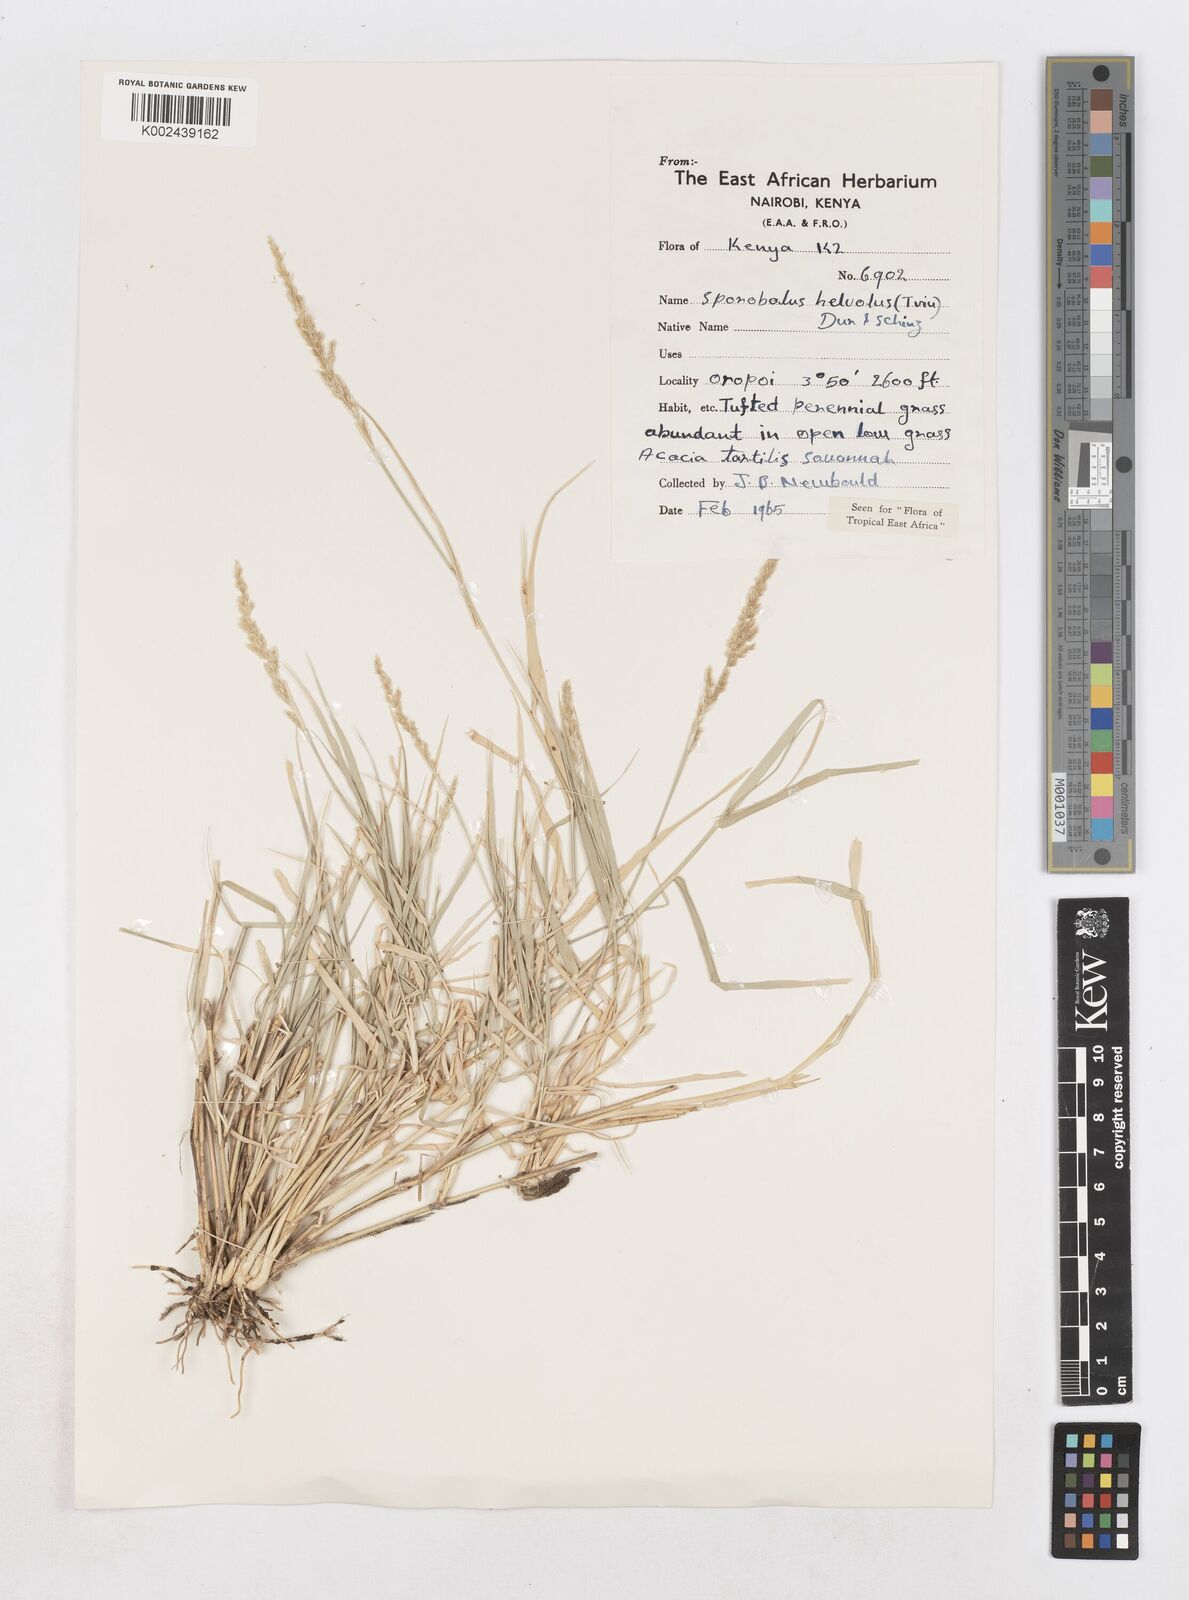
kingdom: Plantae
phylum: Tracheophyta
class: Liliopsida
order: Poales
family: Poaceae
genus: Sporobolus
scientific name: Sporobolus helvolus
